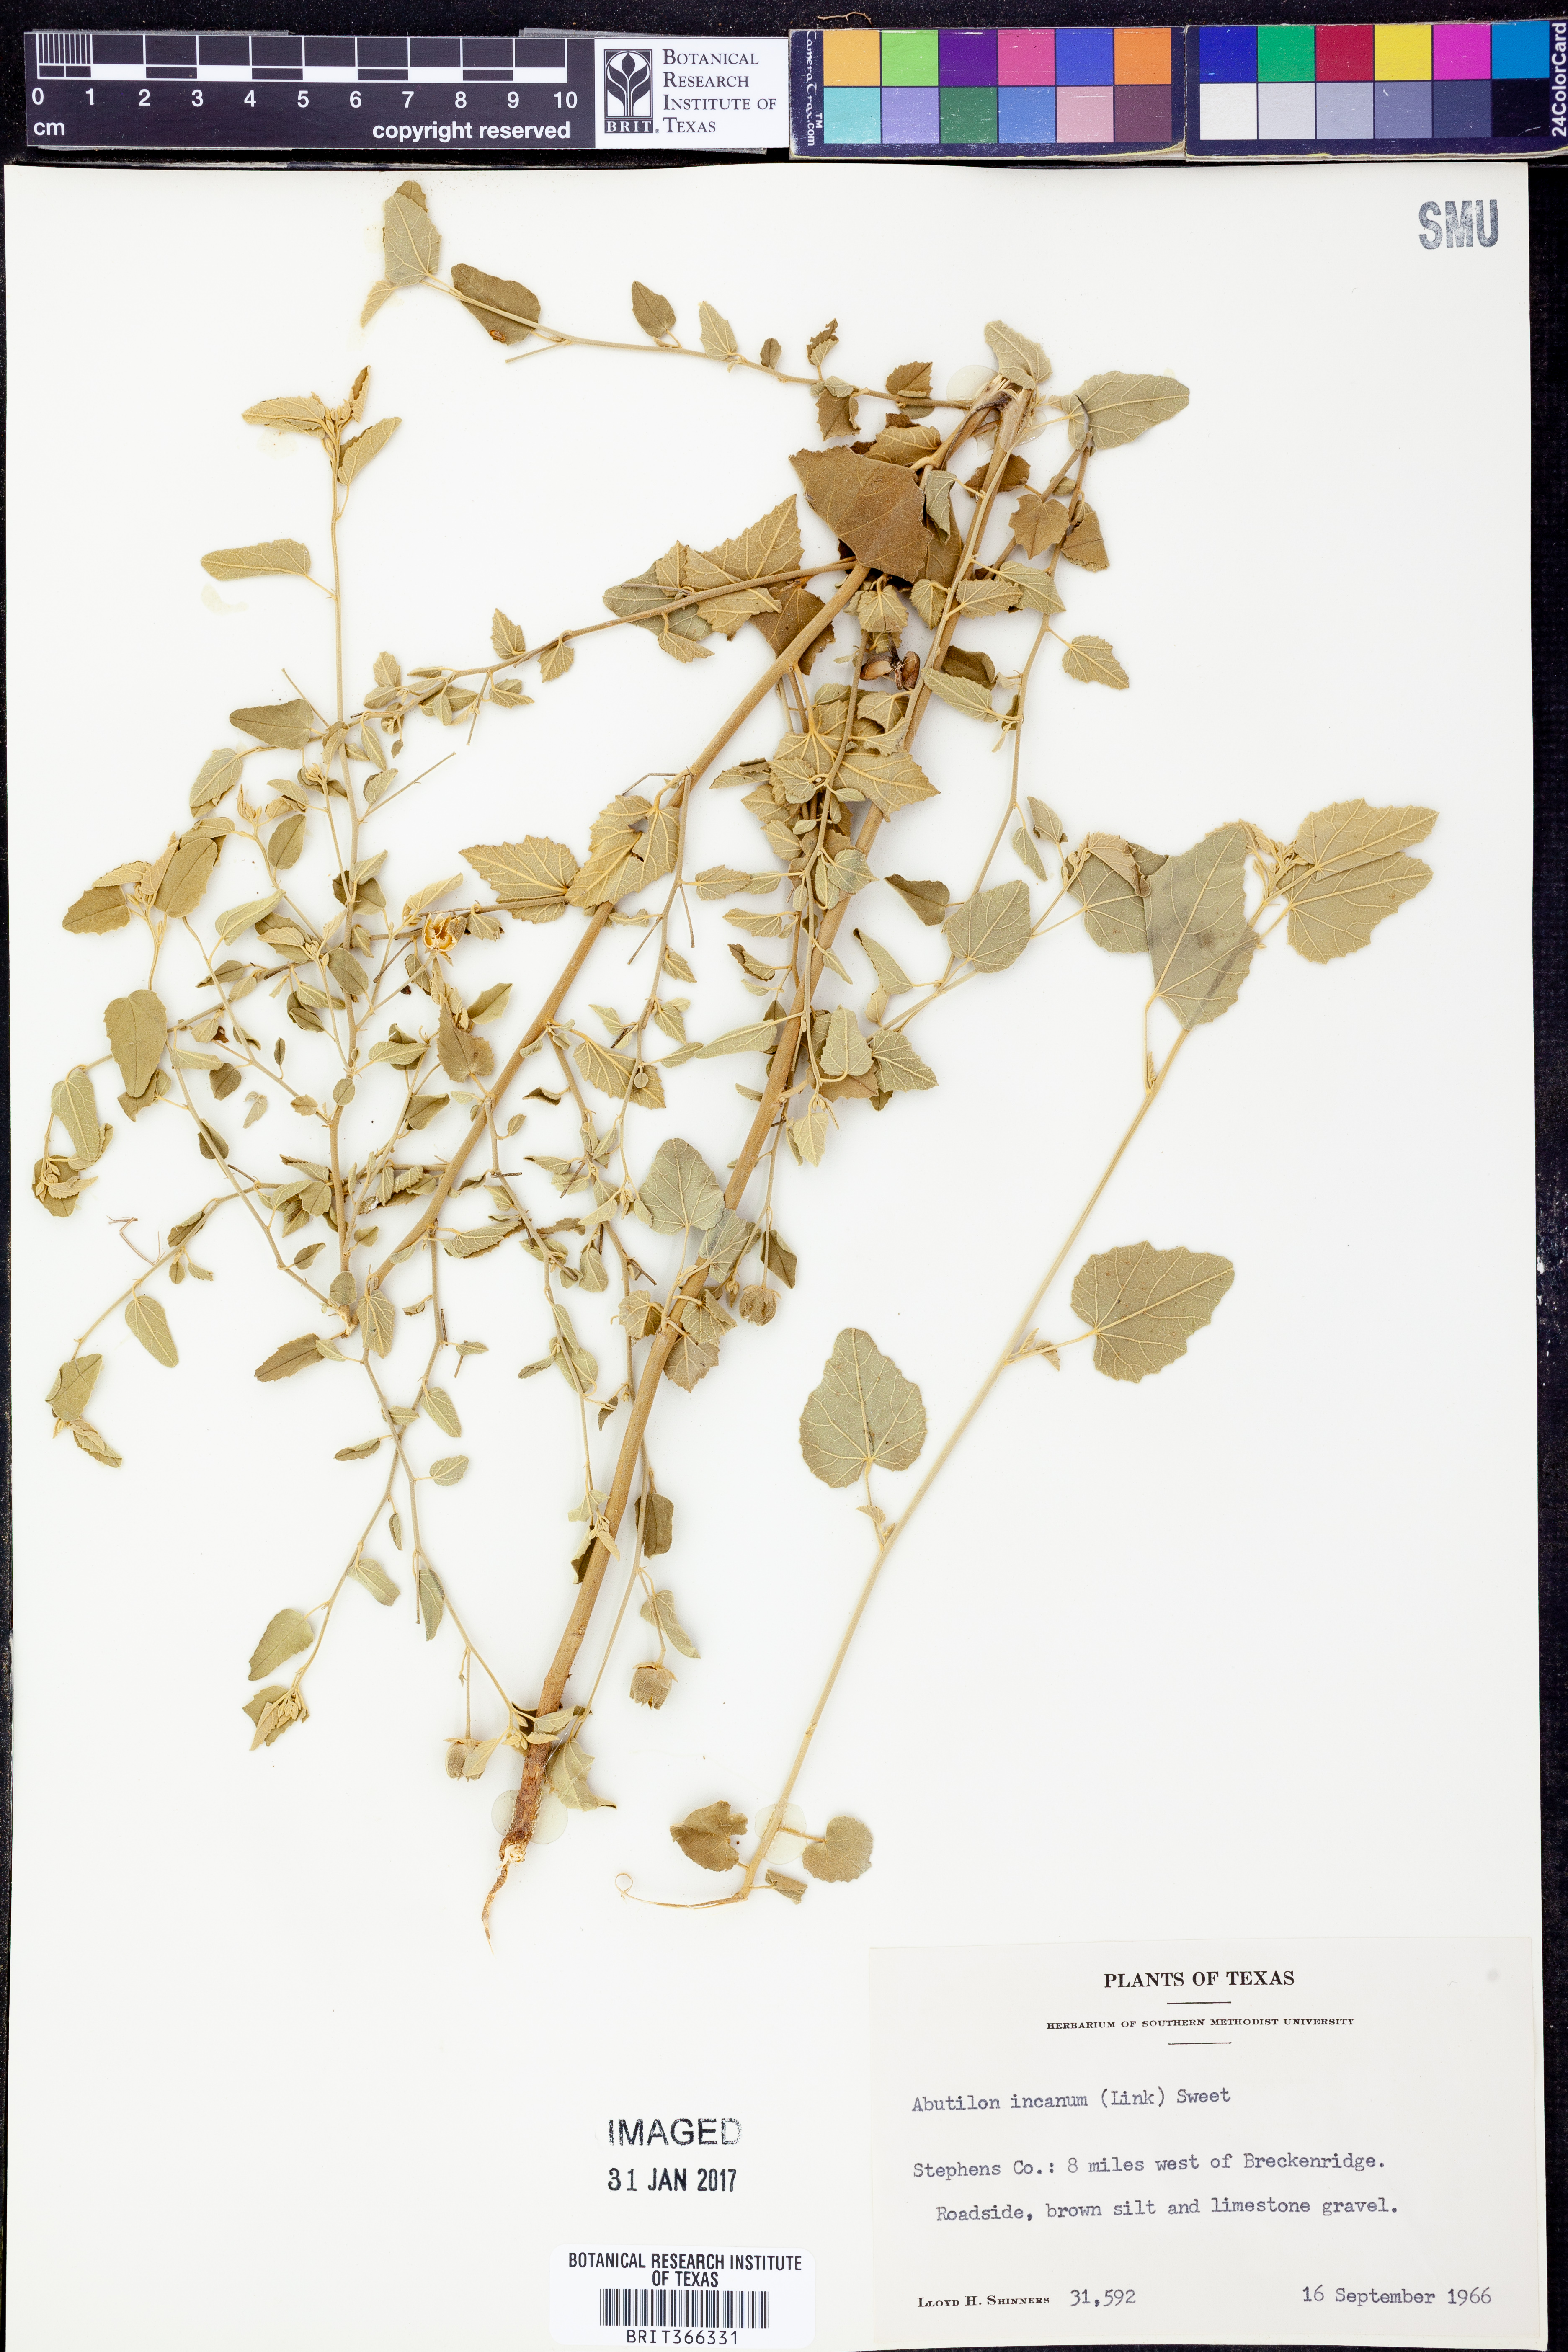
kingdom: Plantae
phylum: Tracheophyta
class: Magnoliopsida
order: Malvales
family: Malvaceae
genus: Abutilon
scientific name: Abutilon incanum
